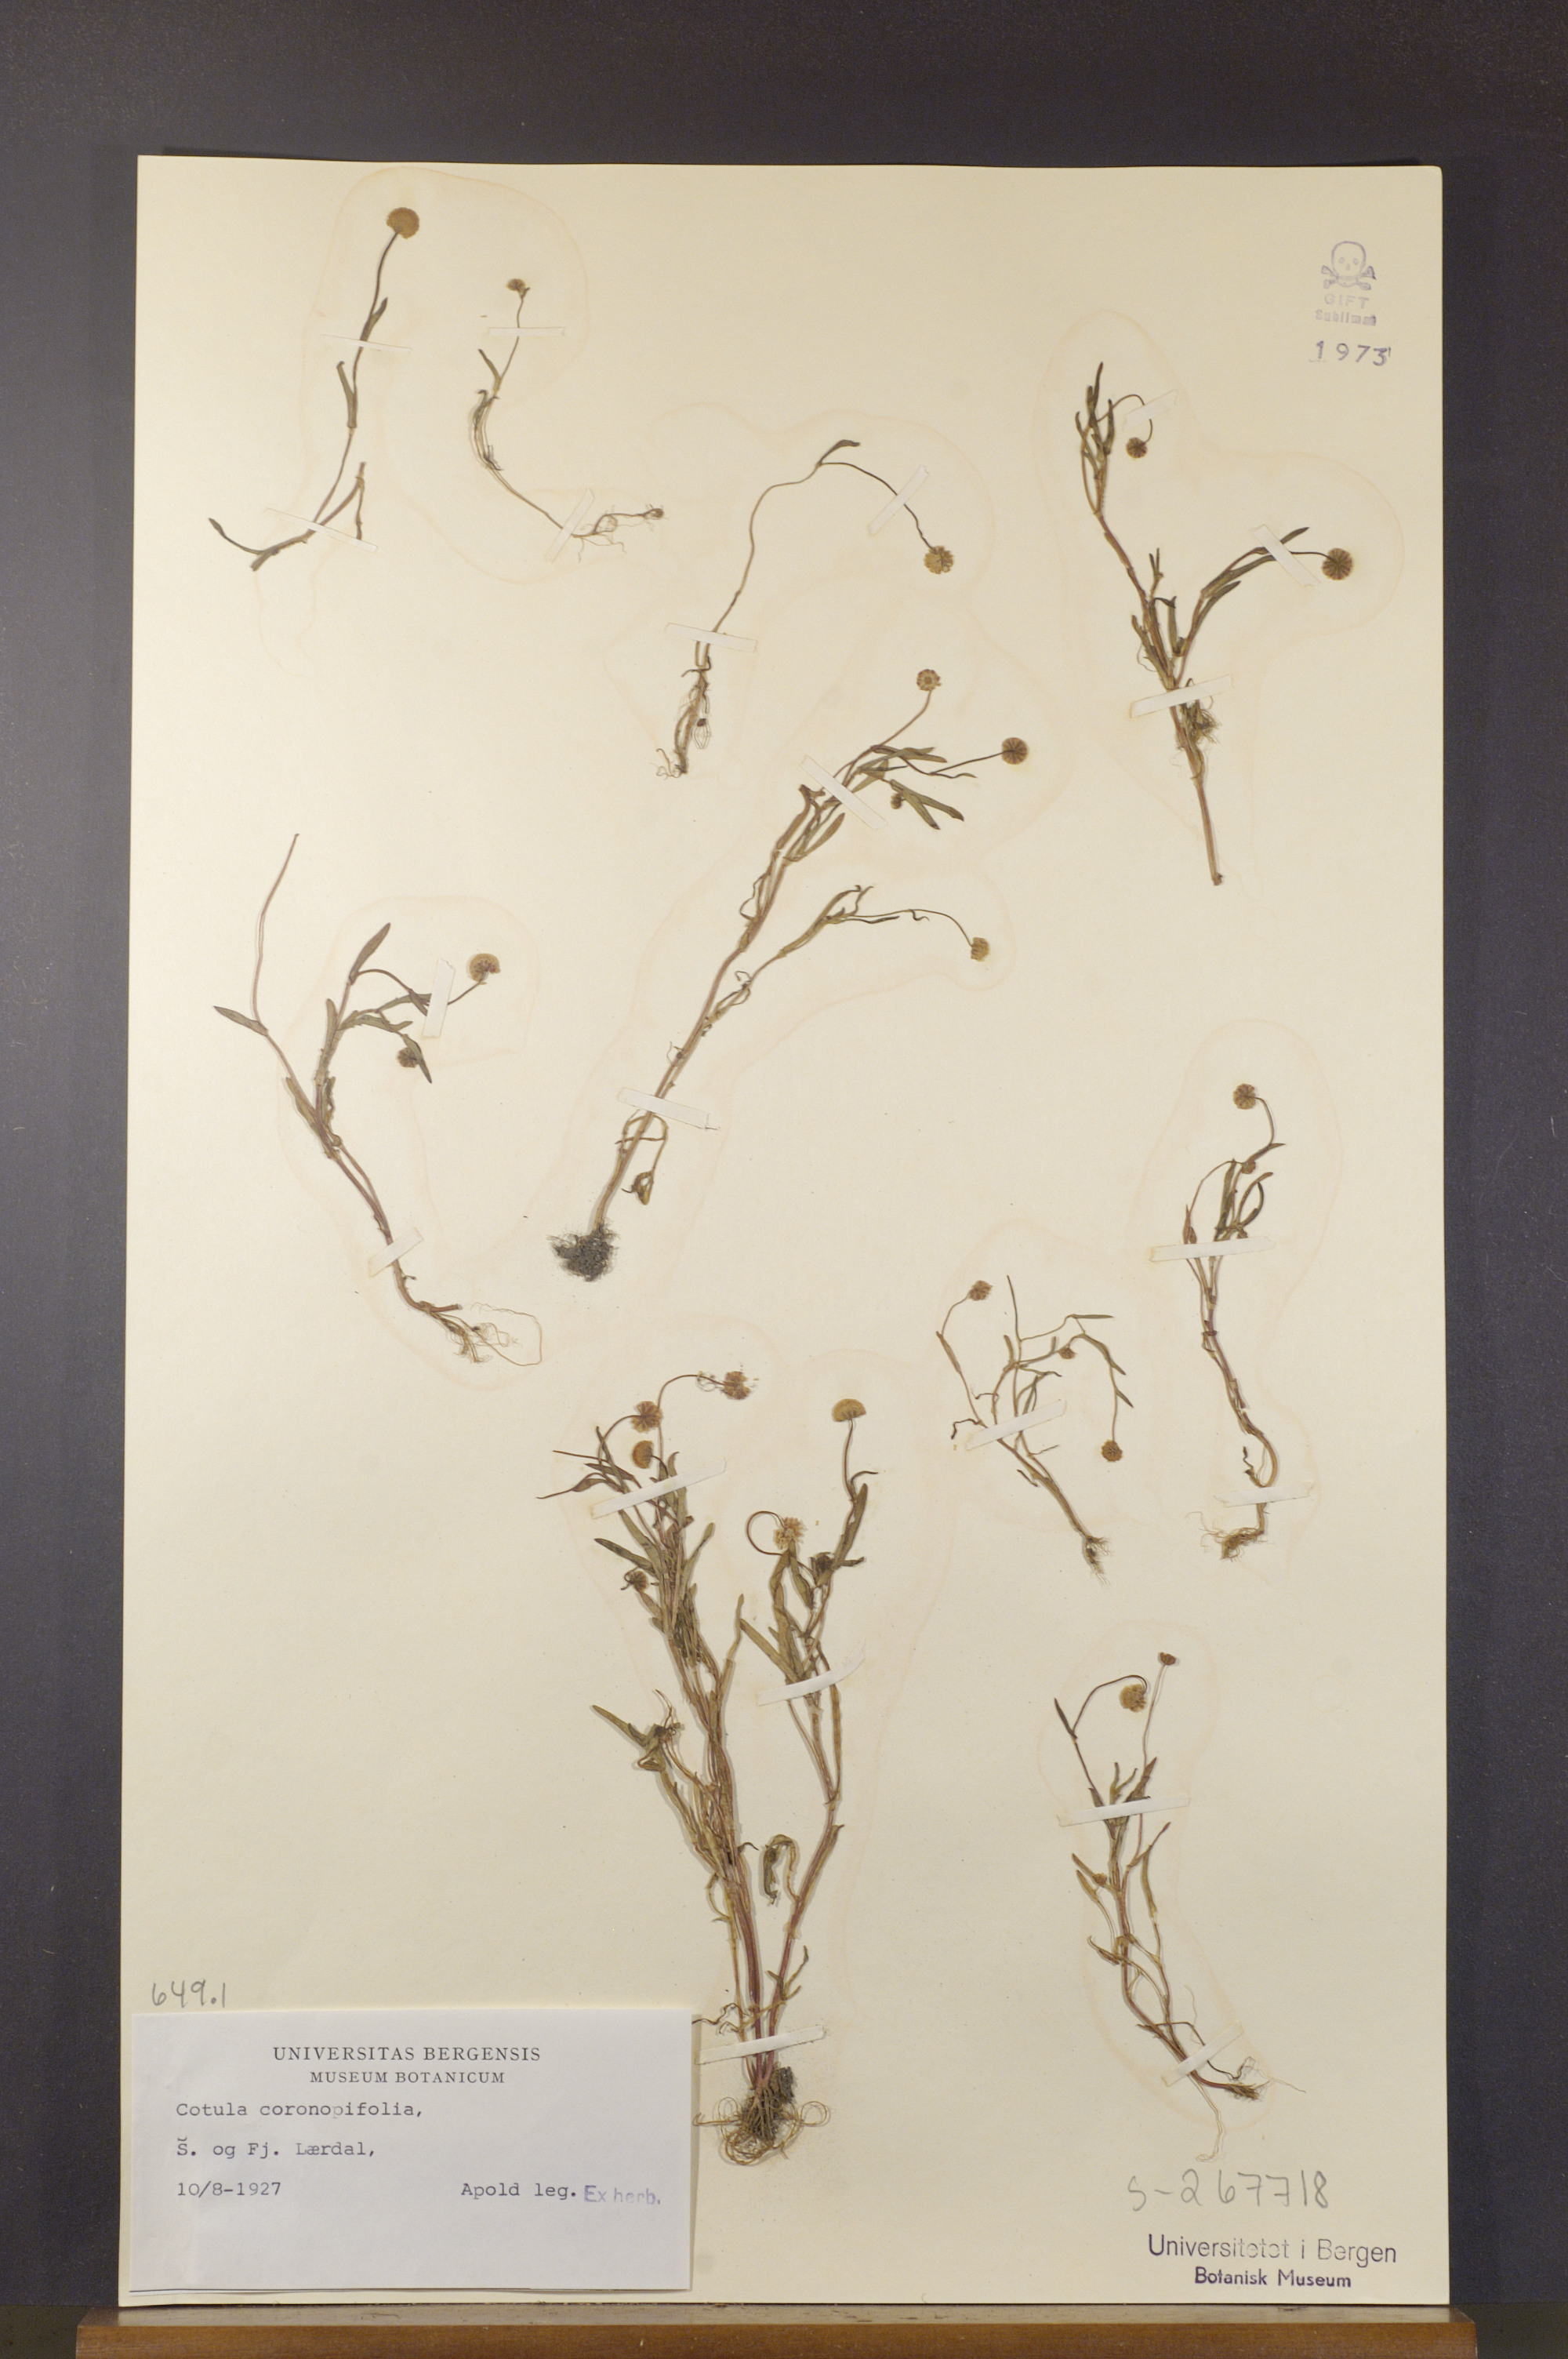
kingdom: Plantae
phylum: Tracheophyta
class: Magnoliopsida
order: Asterales
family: Asteraceae
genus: Cotula
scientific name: Cotula coronopifolia
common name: Buttonweed
